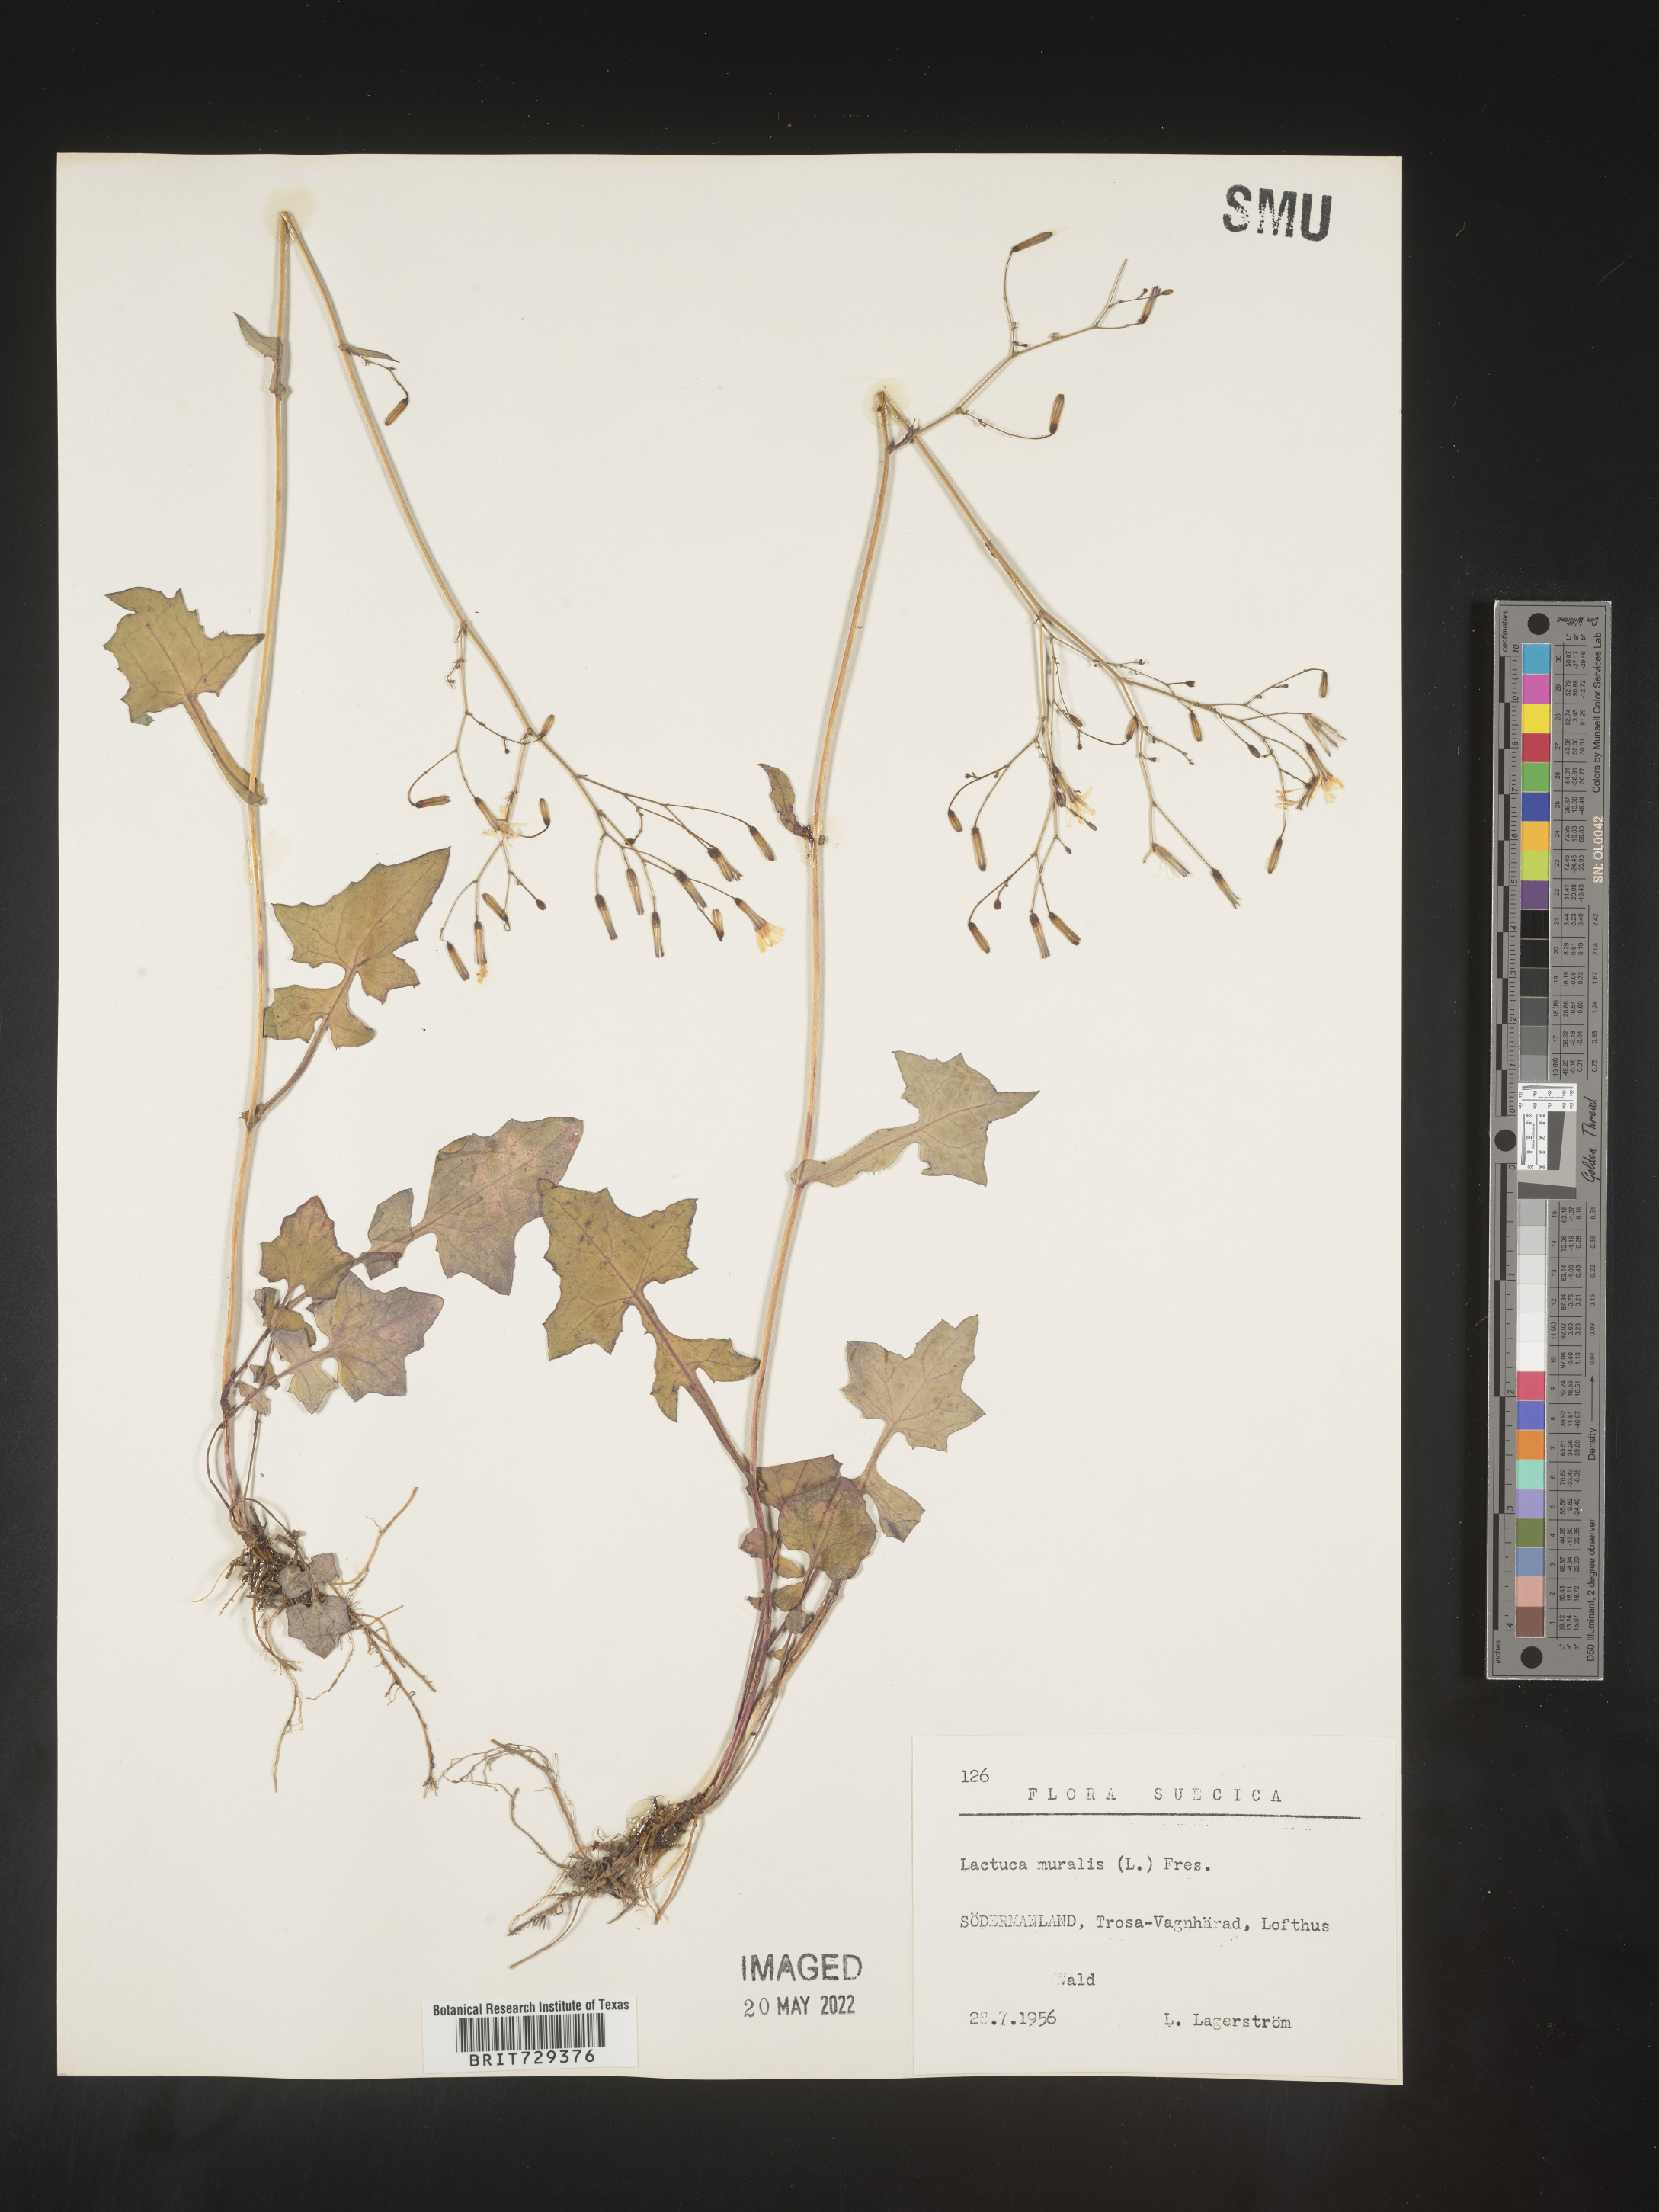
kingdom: Plantae
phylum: Tracheophyta
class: Magnoliopsida
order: Asterales
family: Asteraceae
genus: Lactuca
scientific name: Lactuca
